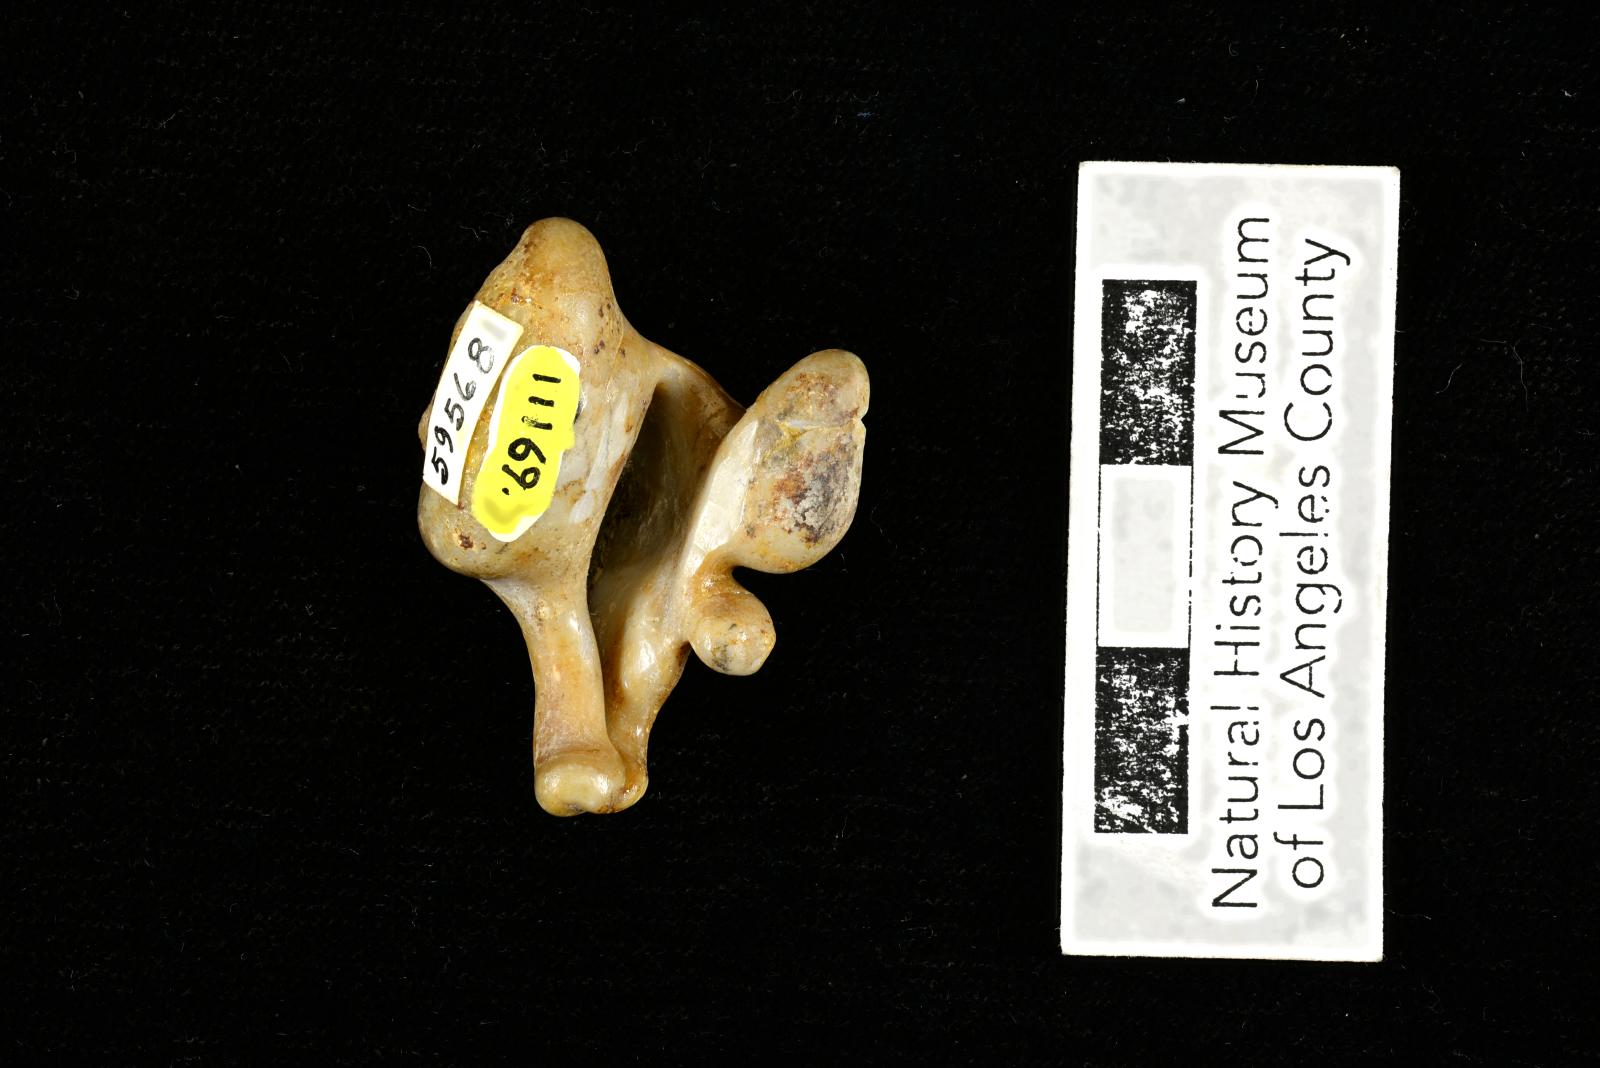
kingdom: Animalia
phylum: Mollusca
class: Gastropoda
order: Littorinimorpha
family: Aporrhaidae
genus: Pyktes
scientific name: Pyktes aspris
